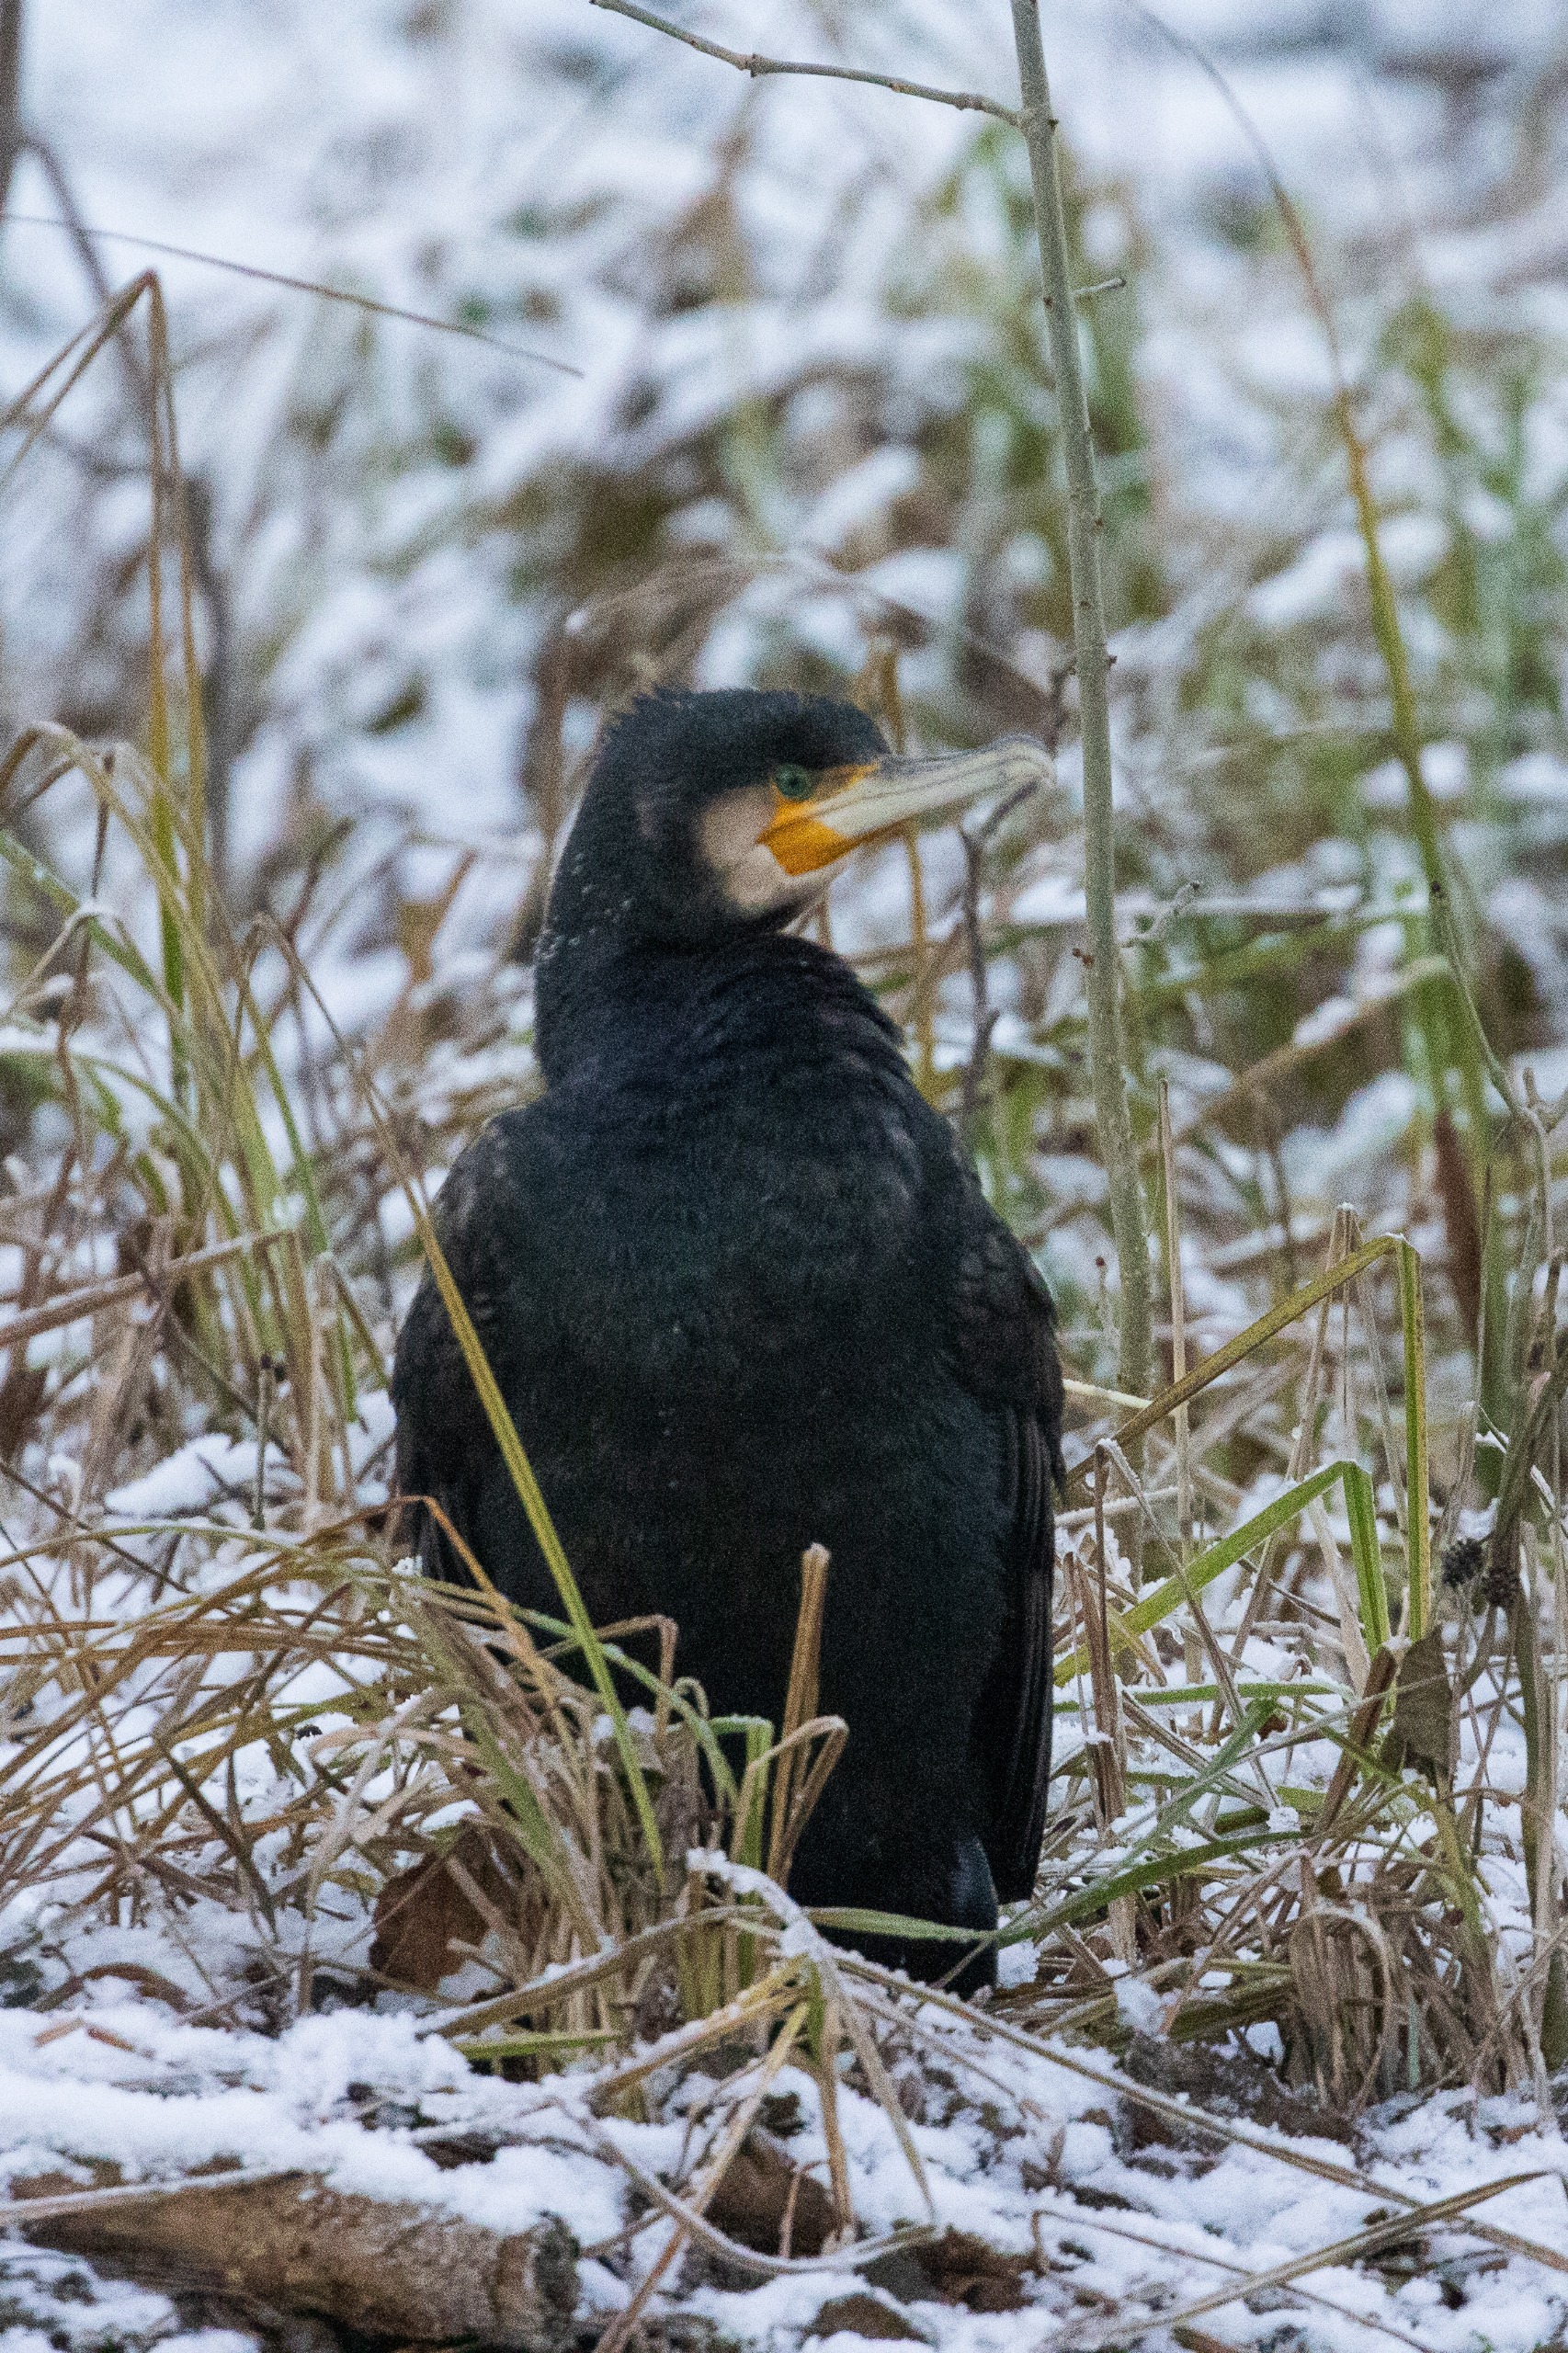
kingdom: Animalia
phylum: Chordata
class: Aves
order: Suliformes
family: Phalacrocoracidae
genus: Phalacrocorax
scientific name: Phalacrocorax carbo
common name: Skarv
